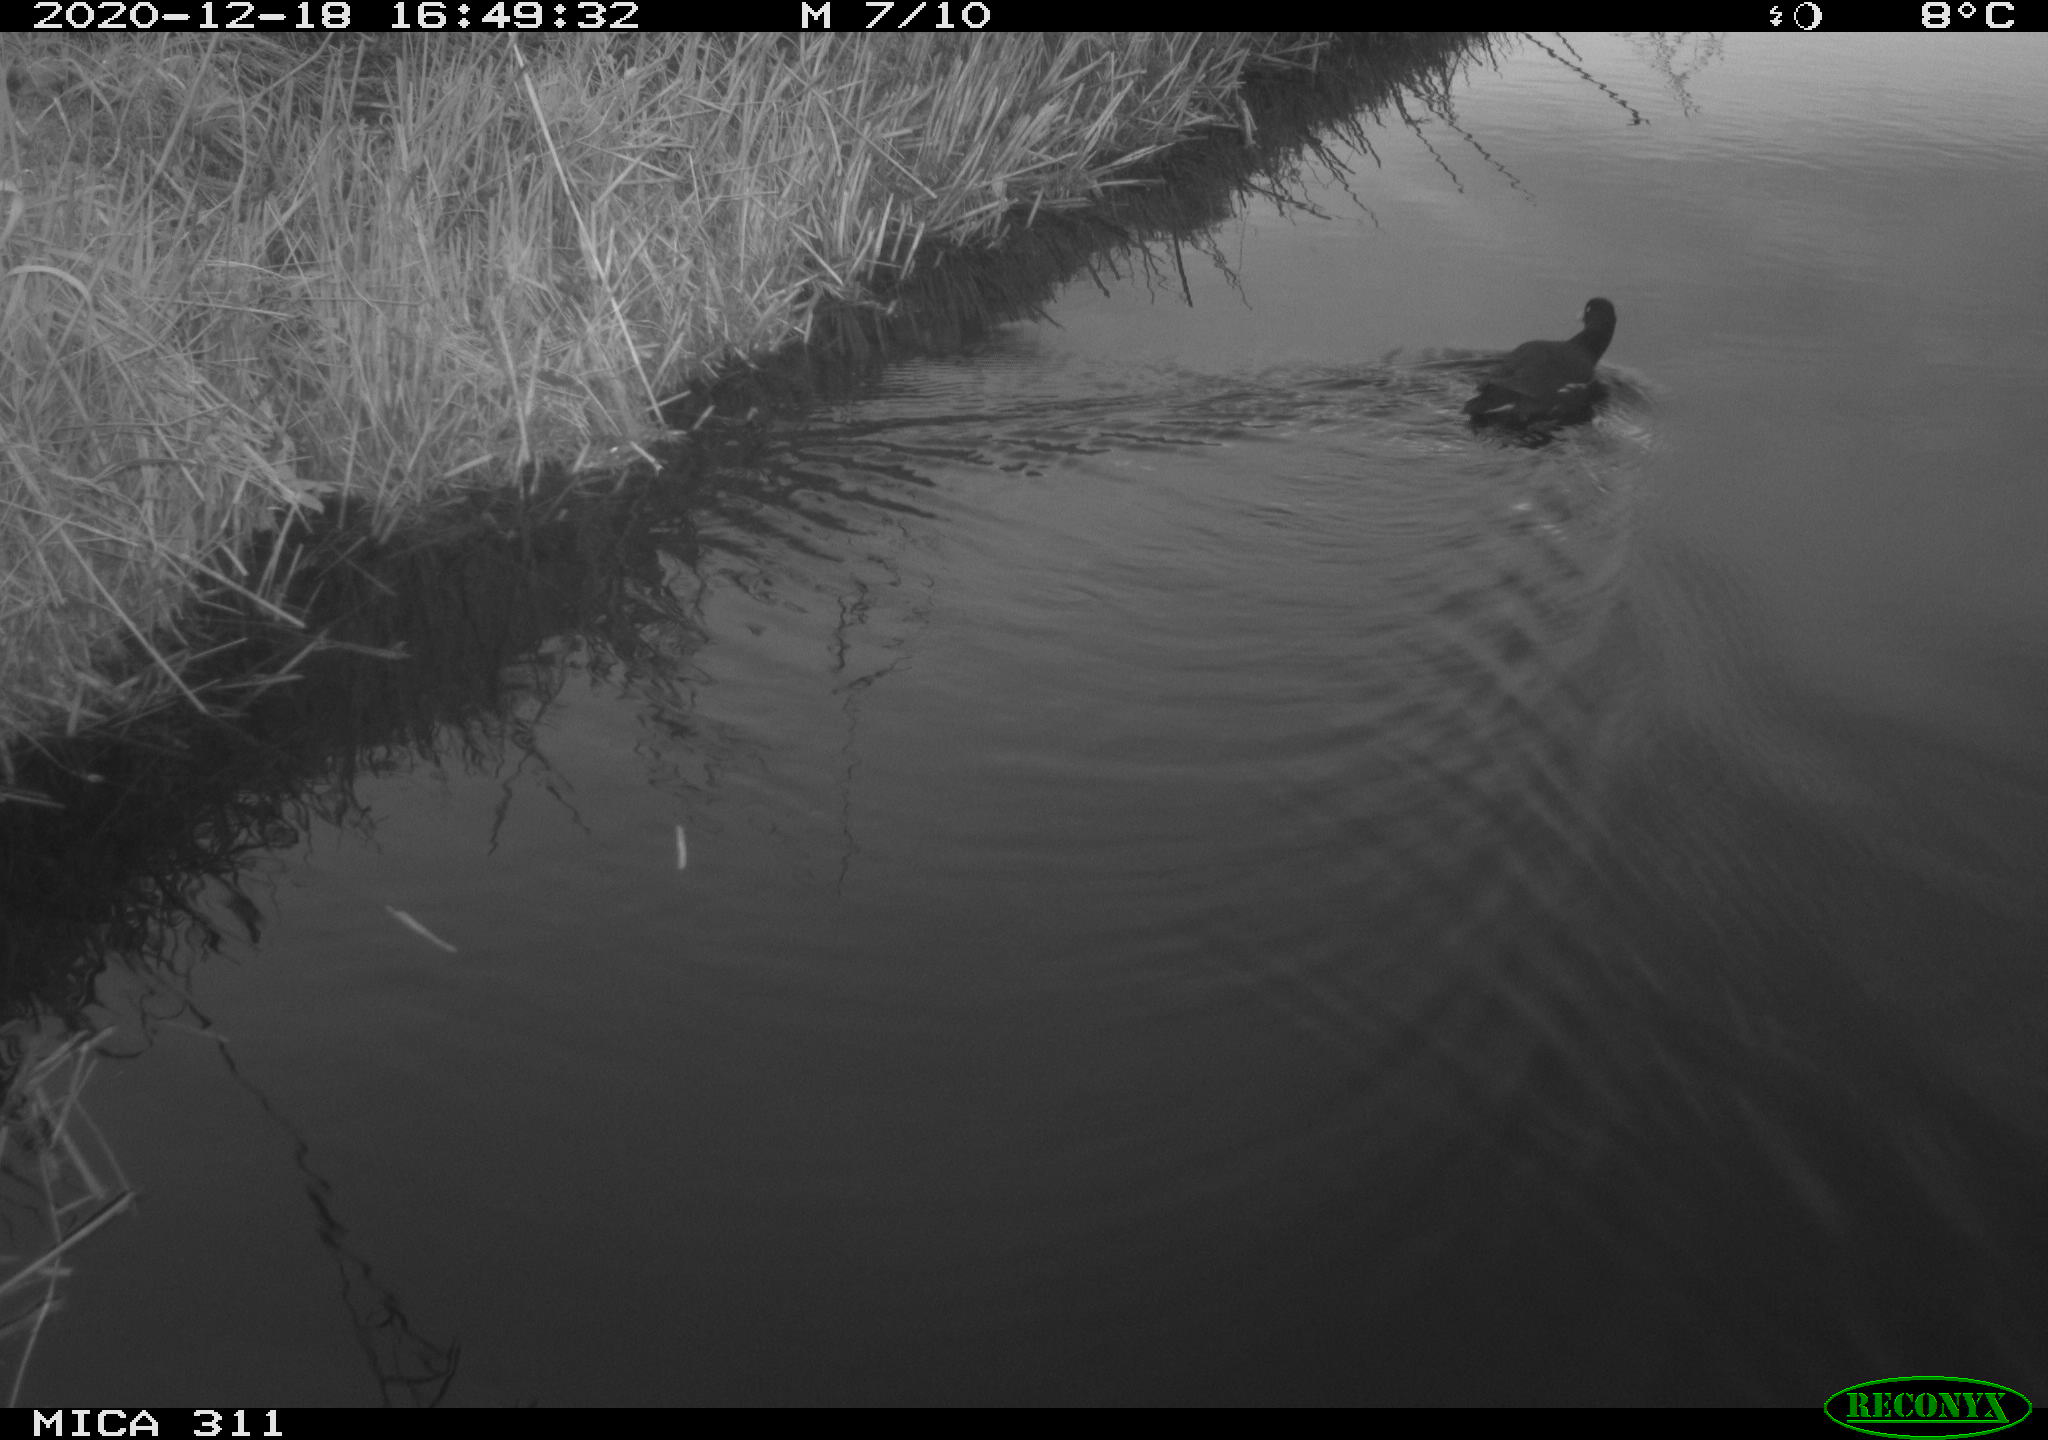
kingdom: Animalia
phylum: Chordata
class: Aves
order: Gruiformes
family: Rallidae
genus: Gallinula
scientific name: Gallinula chloropus
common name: Common moorhen
